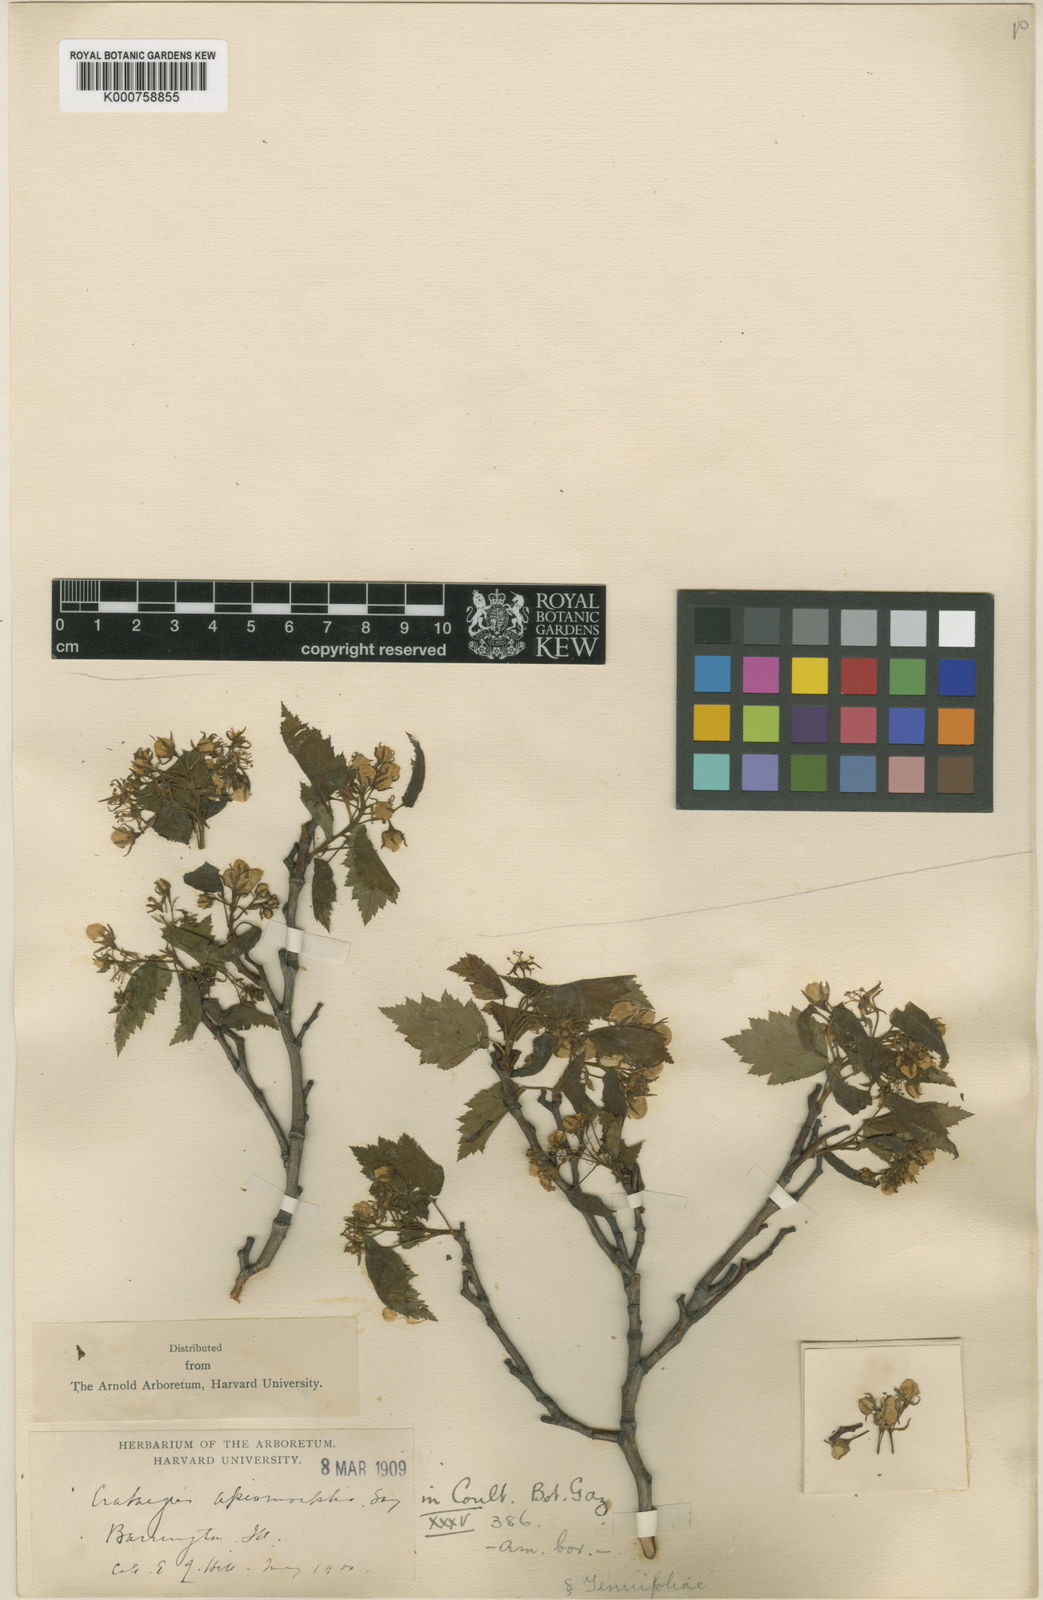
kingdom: Plantae
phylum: Tracheophyta
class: Magnoliopsida
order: Rosales
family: Rosaceae
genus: Crataegus
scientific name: Crataegus fluviatilis
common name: Fort sheridan hawthorn
